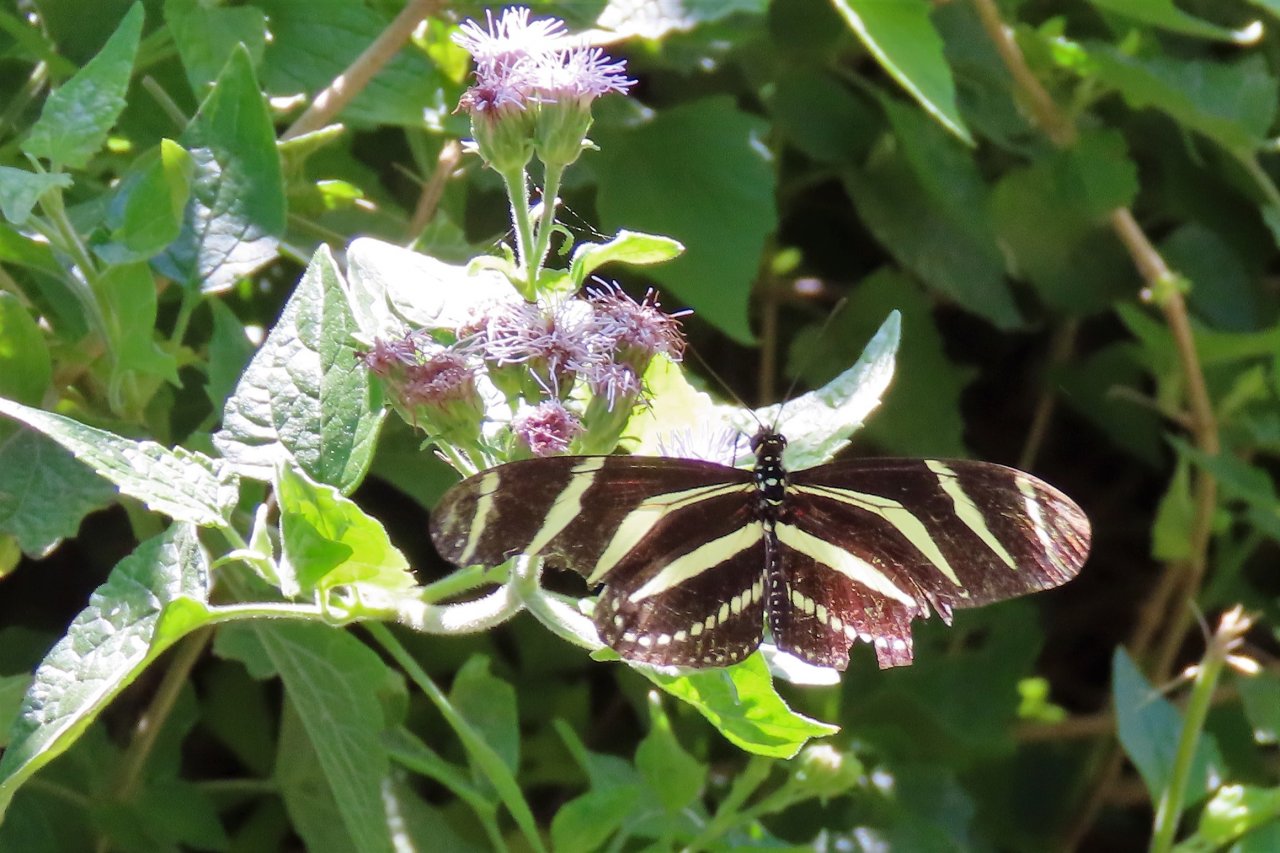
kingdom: Animalia
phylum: Arthropoda
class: Insecta
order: Lepidoptera
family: Nymphalidae
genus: Heliconius
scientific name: Heliconius charithonia
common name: Zebra Longwing
